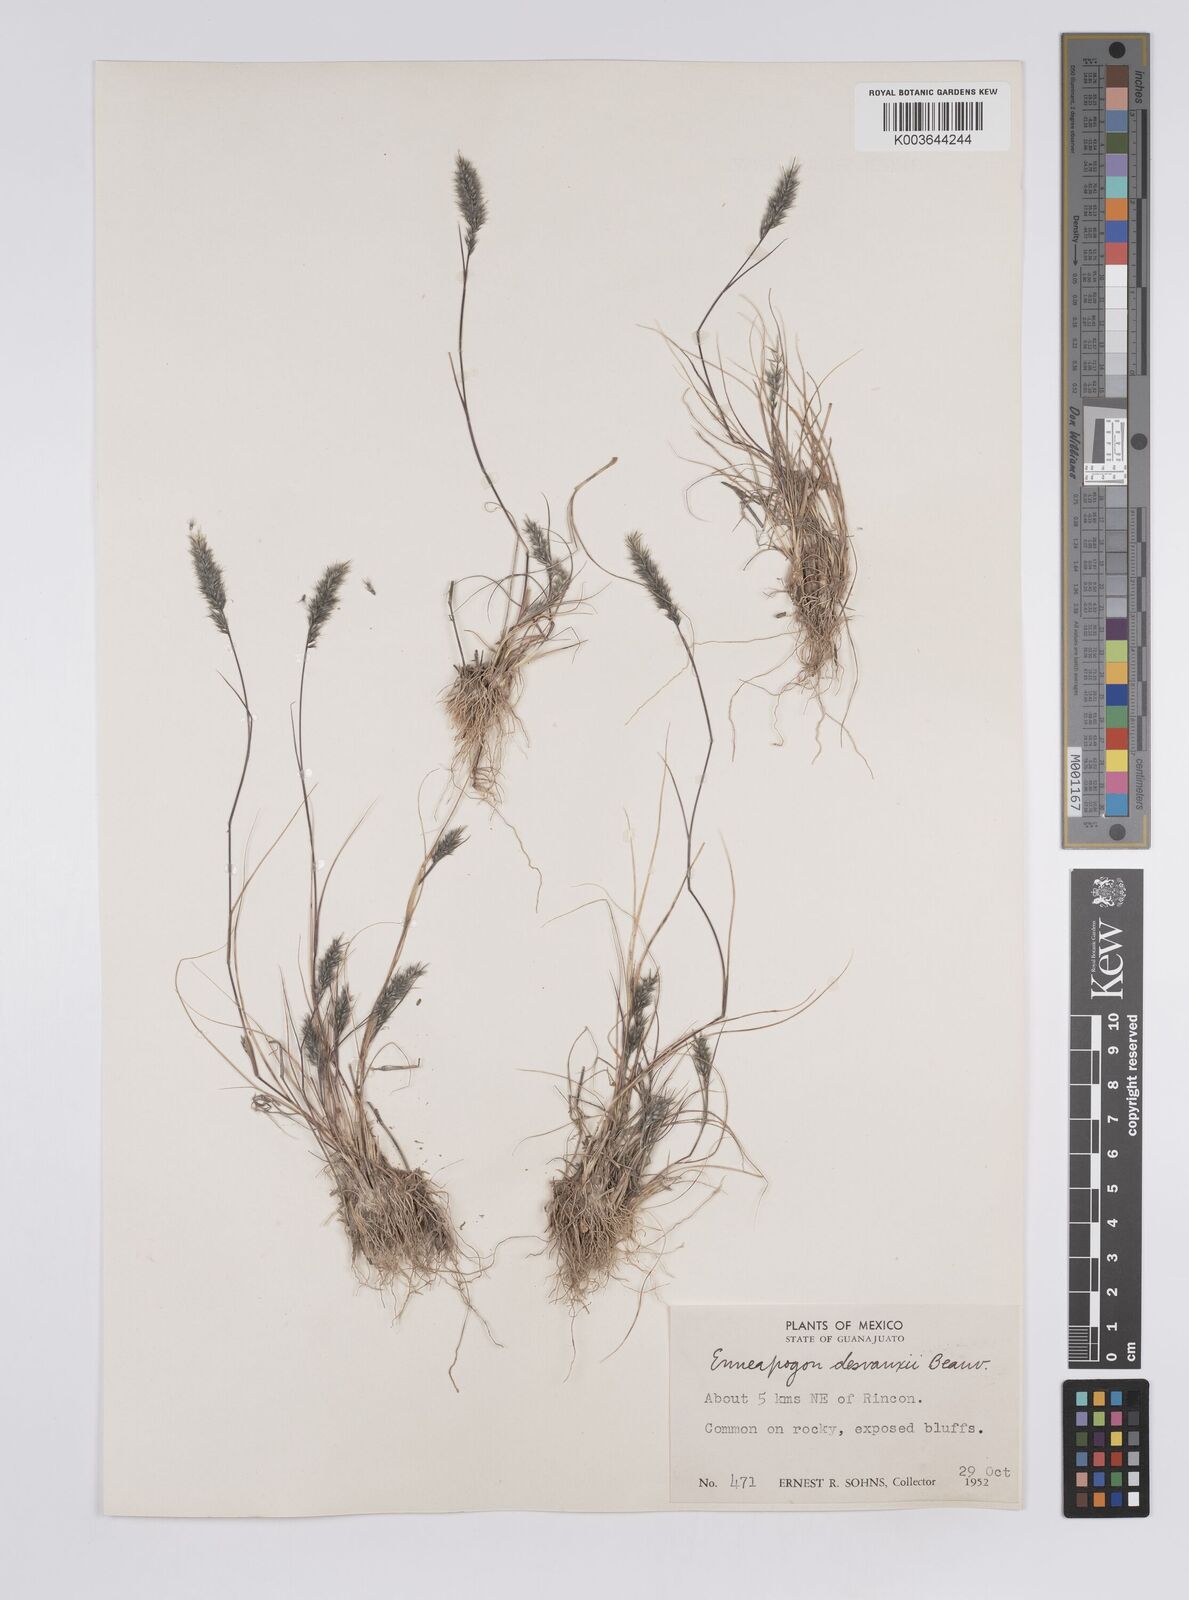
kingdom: Plantae
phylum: Tracheophyta
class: Liliopsida
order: Poales
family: Poaceae
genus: Enneapogon
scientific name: Enneapogon desvauxii
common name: Feather pappus grass
